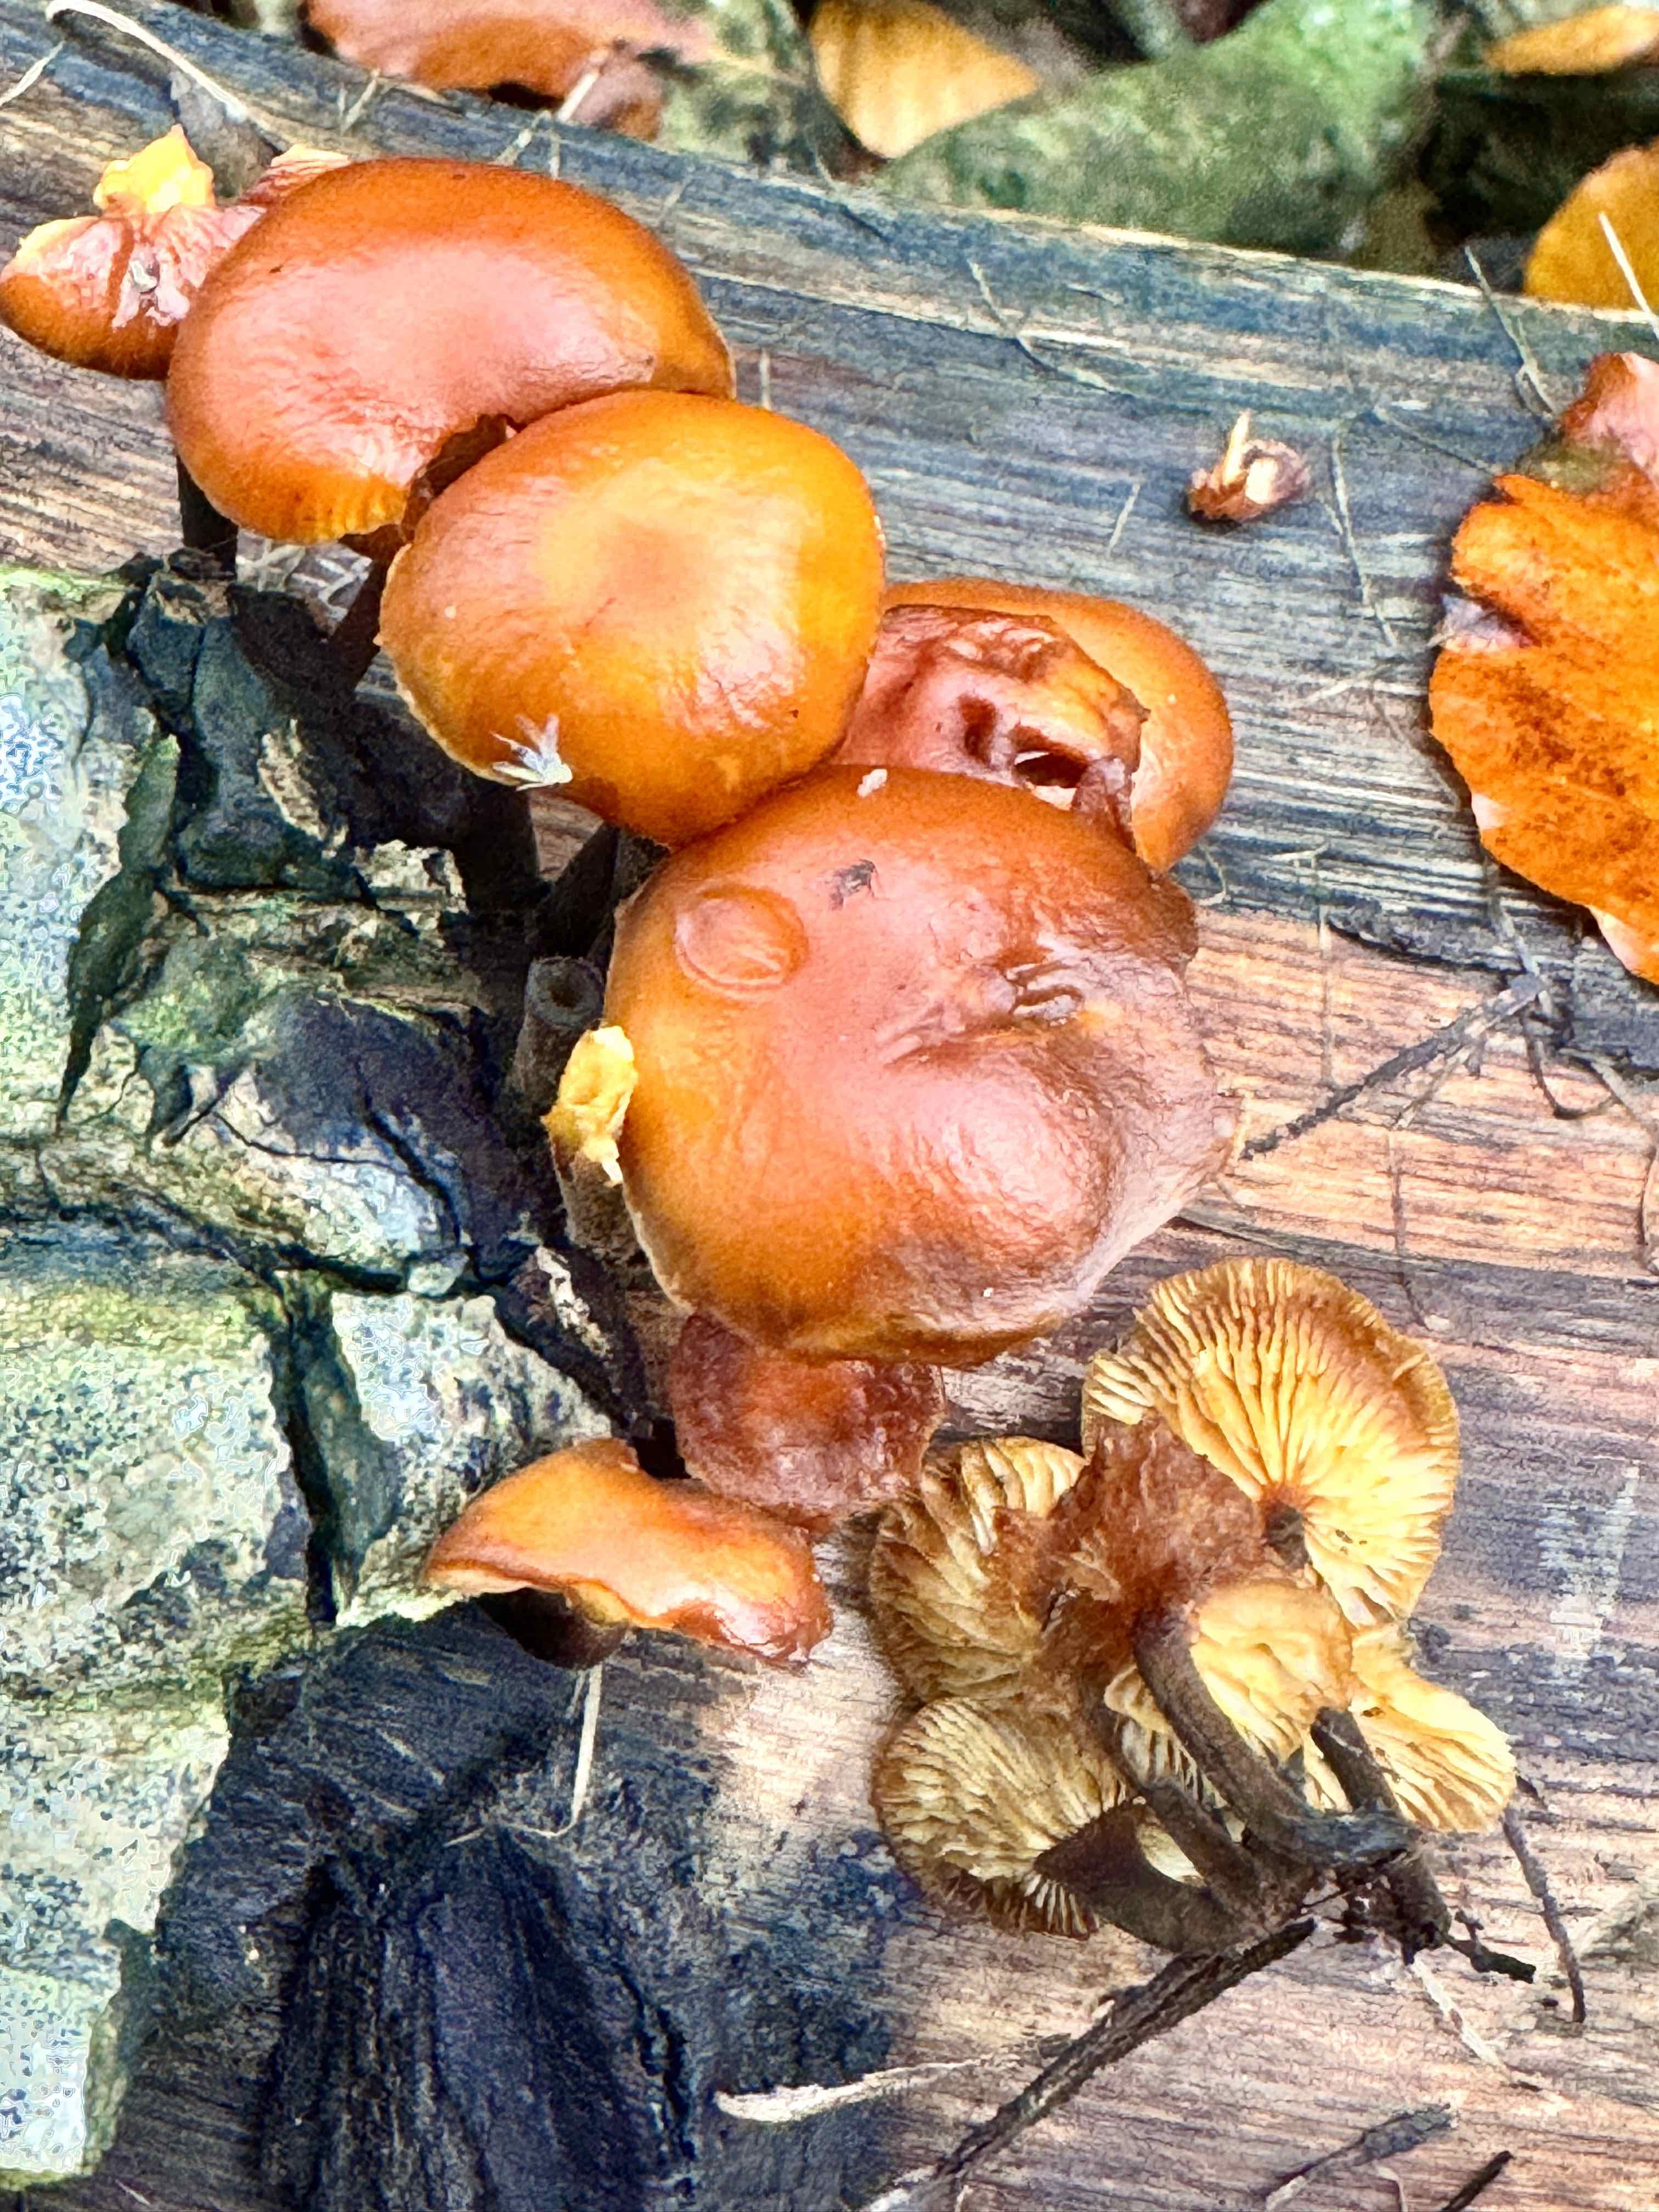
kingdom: Fungi
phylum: Basidiomycota
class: Agaricomycetes
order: Agaricales
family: Physalacriaceae
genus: Flammulina
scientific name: Flammulina velutipes
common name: gul fløjlsfod
